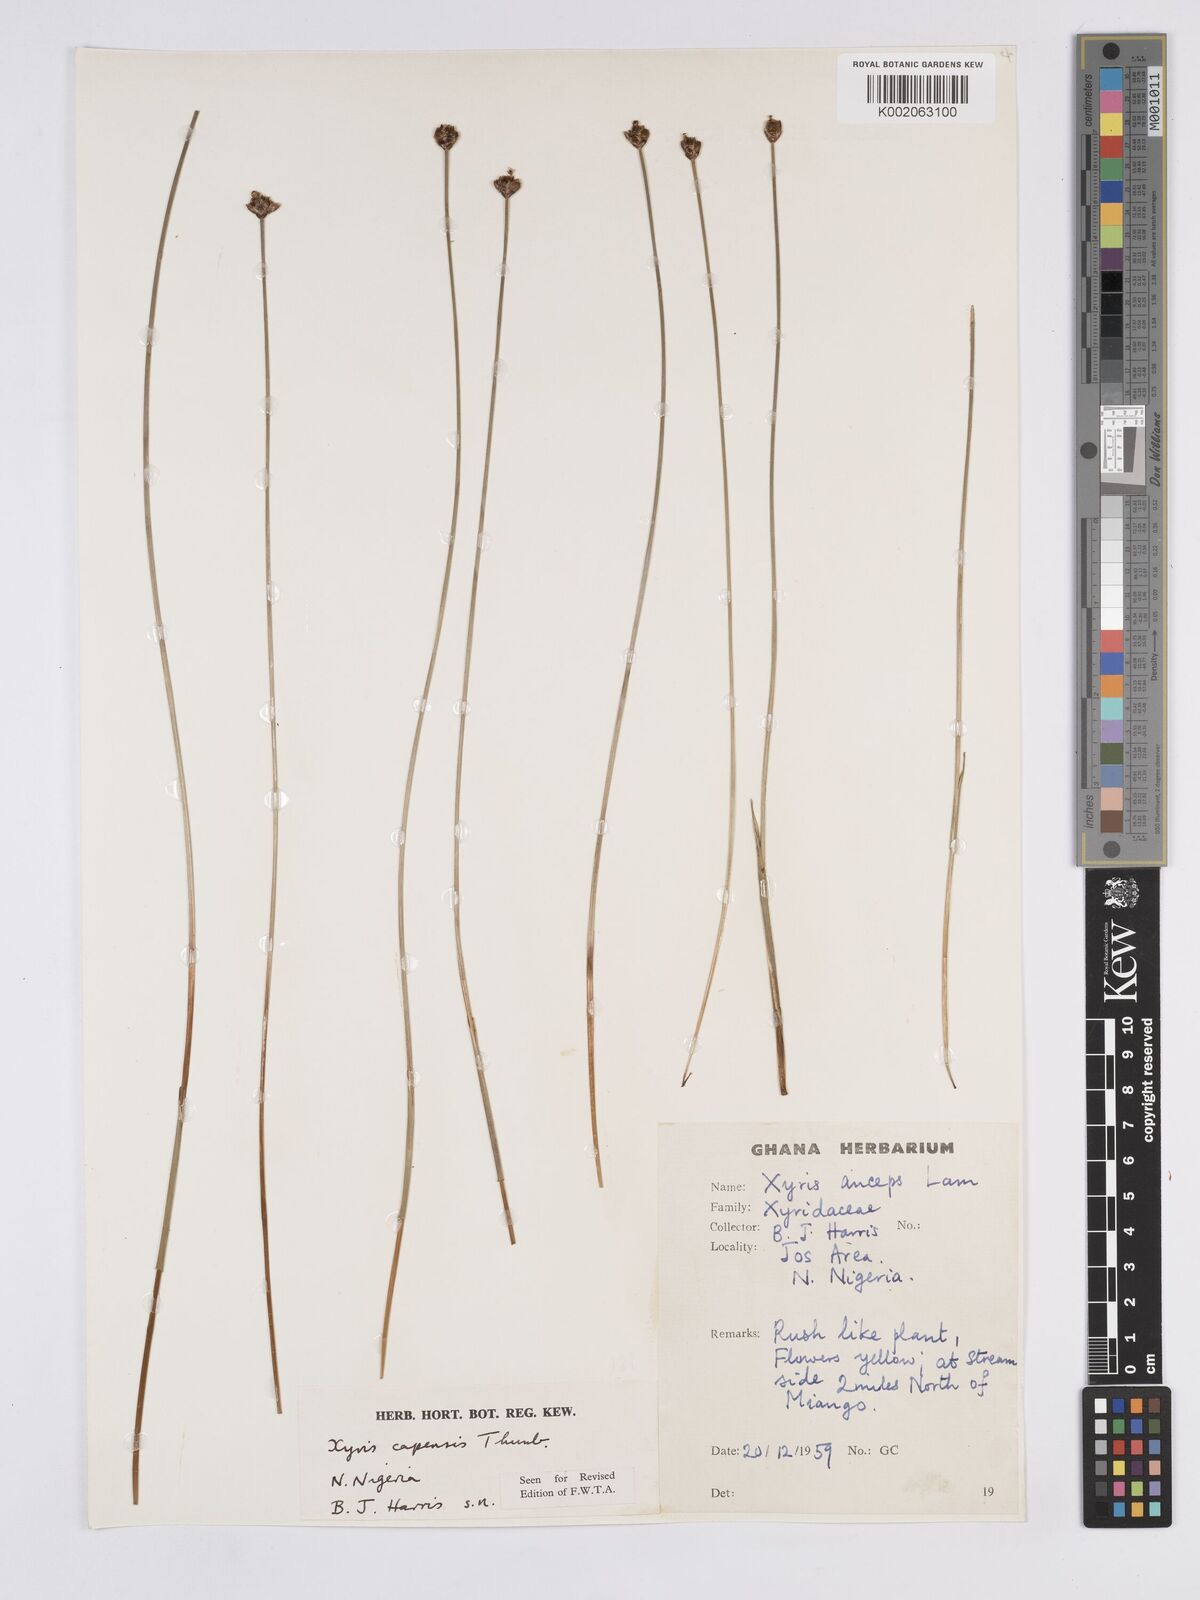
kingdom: Plantae
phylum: Tracheophyta
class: Liliopsida
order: Poales
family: Xyridaceae
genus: Xyris
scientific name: Xyris capensis
